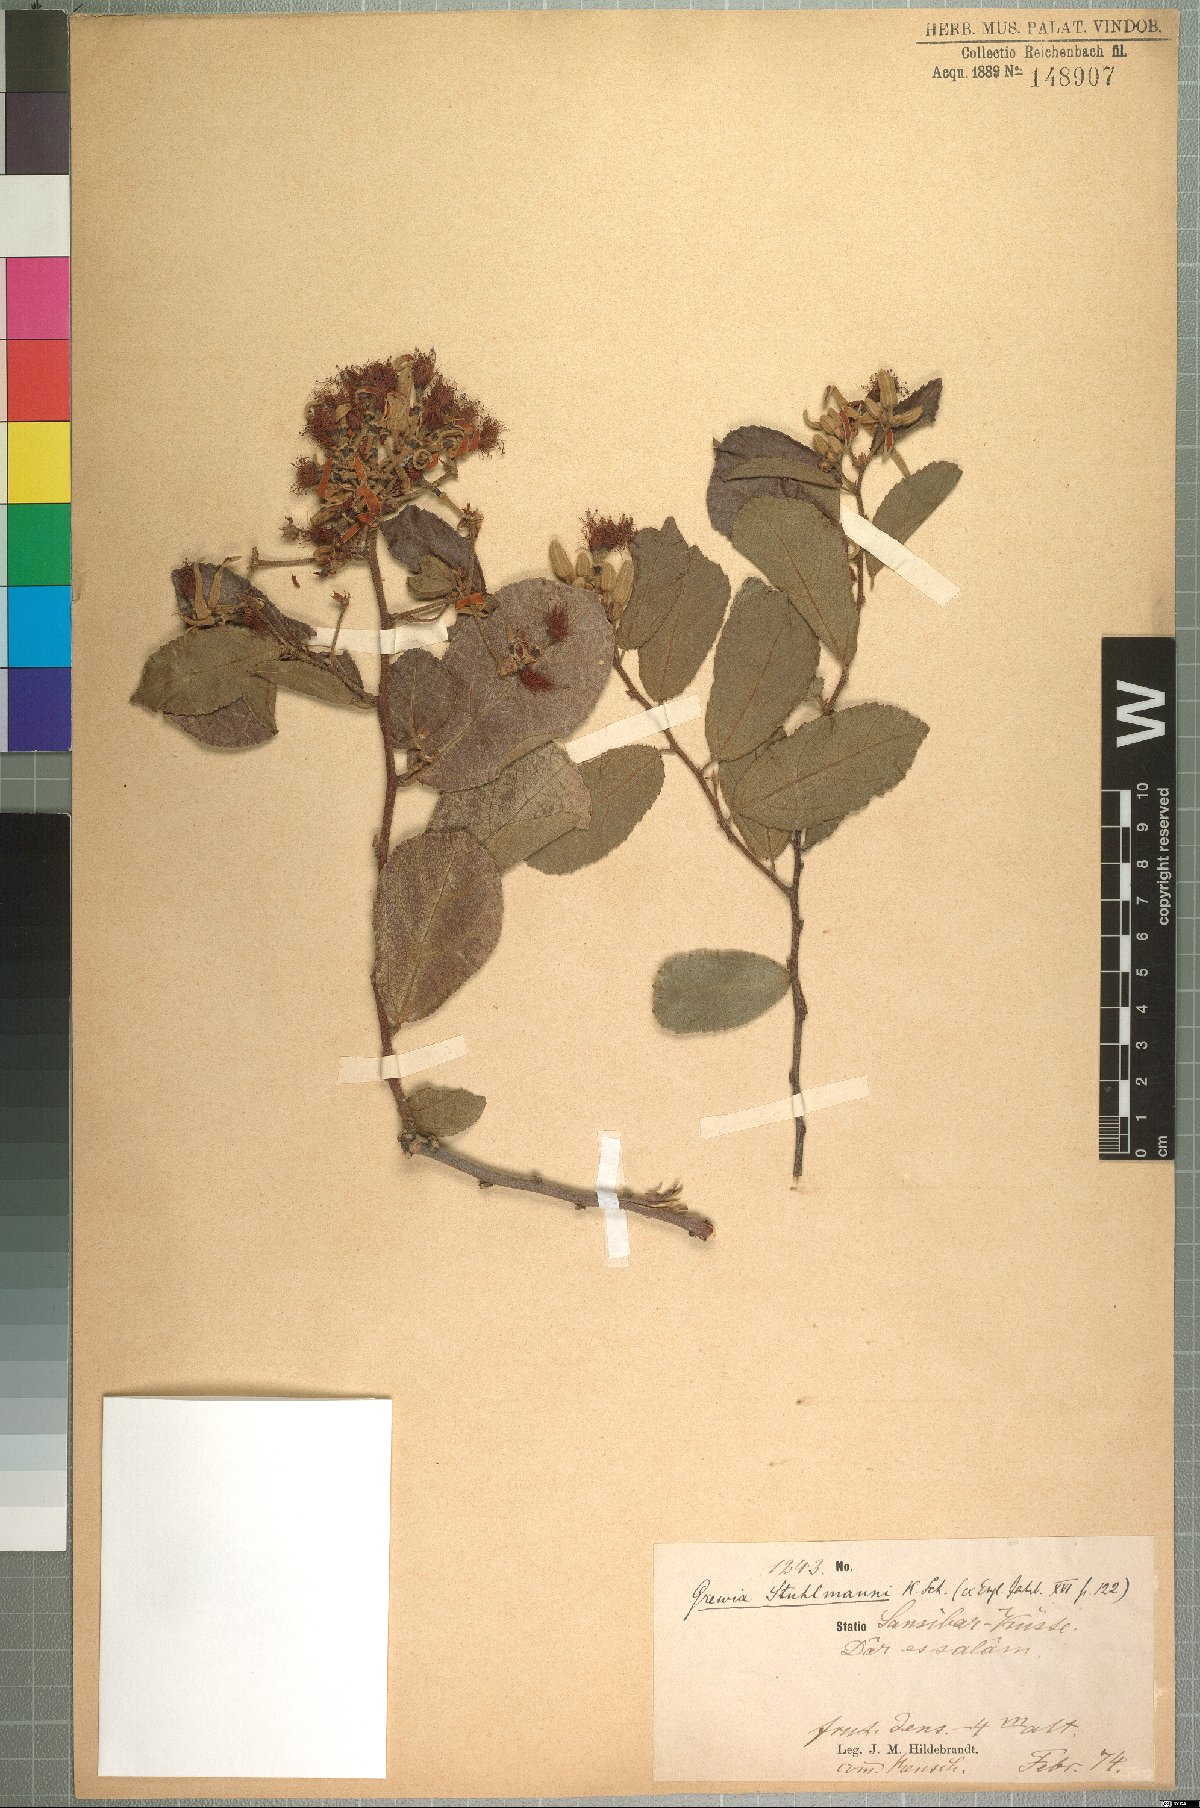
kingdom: Plantae
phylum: Tracheophyta
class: Magnoliopsida
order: Malvales
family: Malvaceae
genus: Grewia
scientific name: Grewia stuhlmannii
